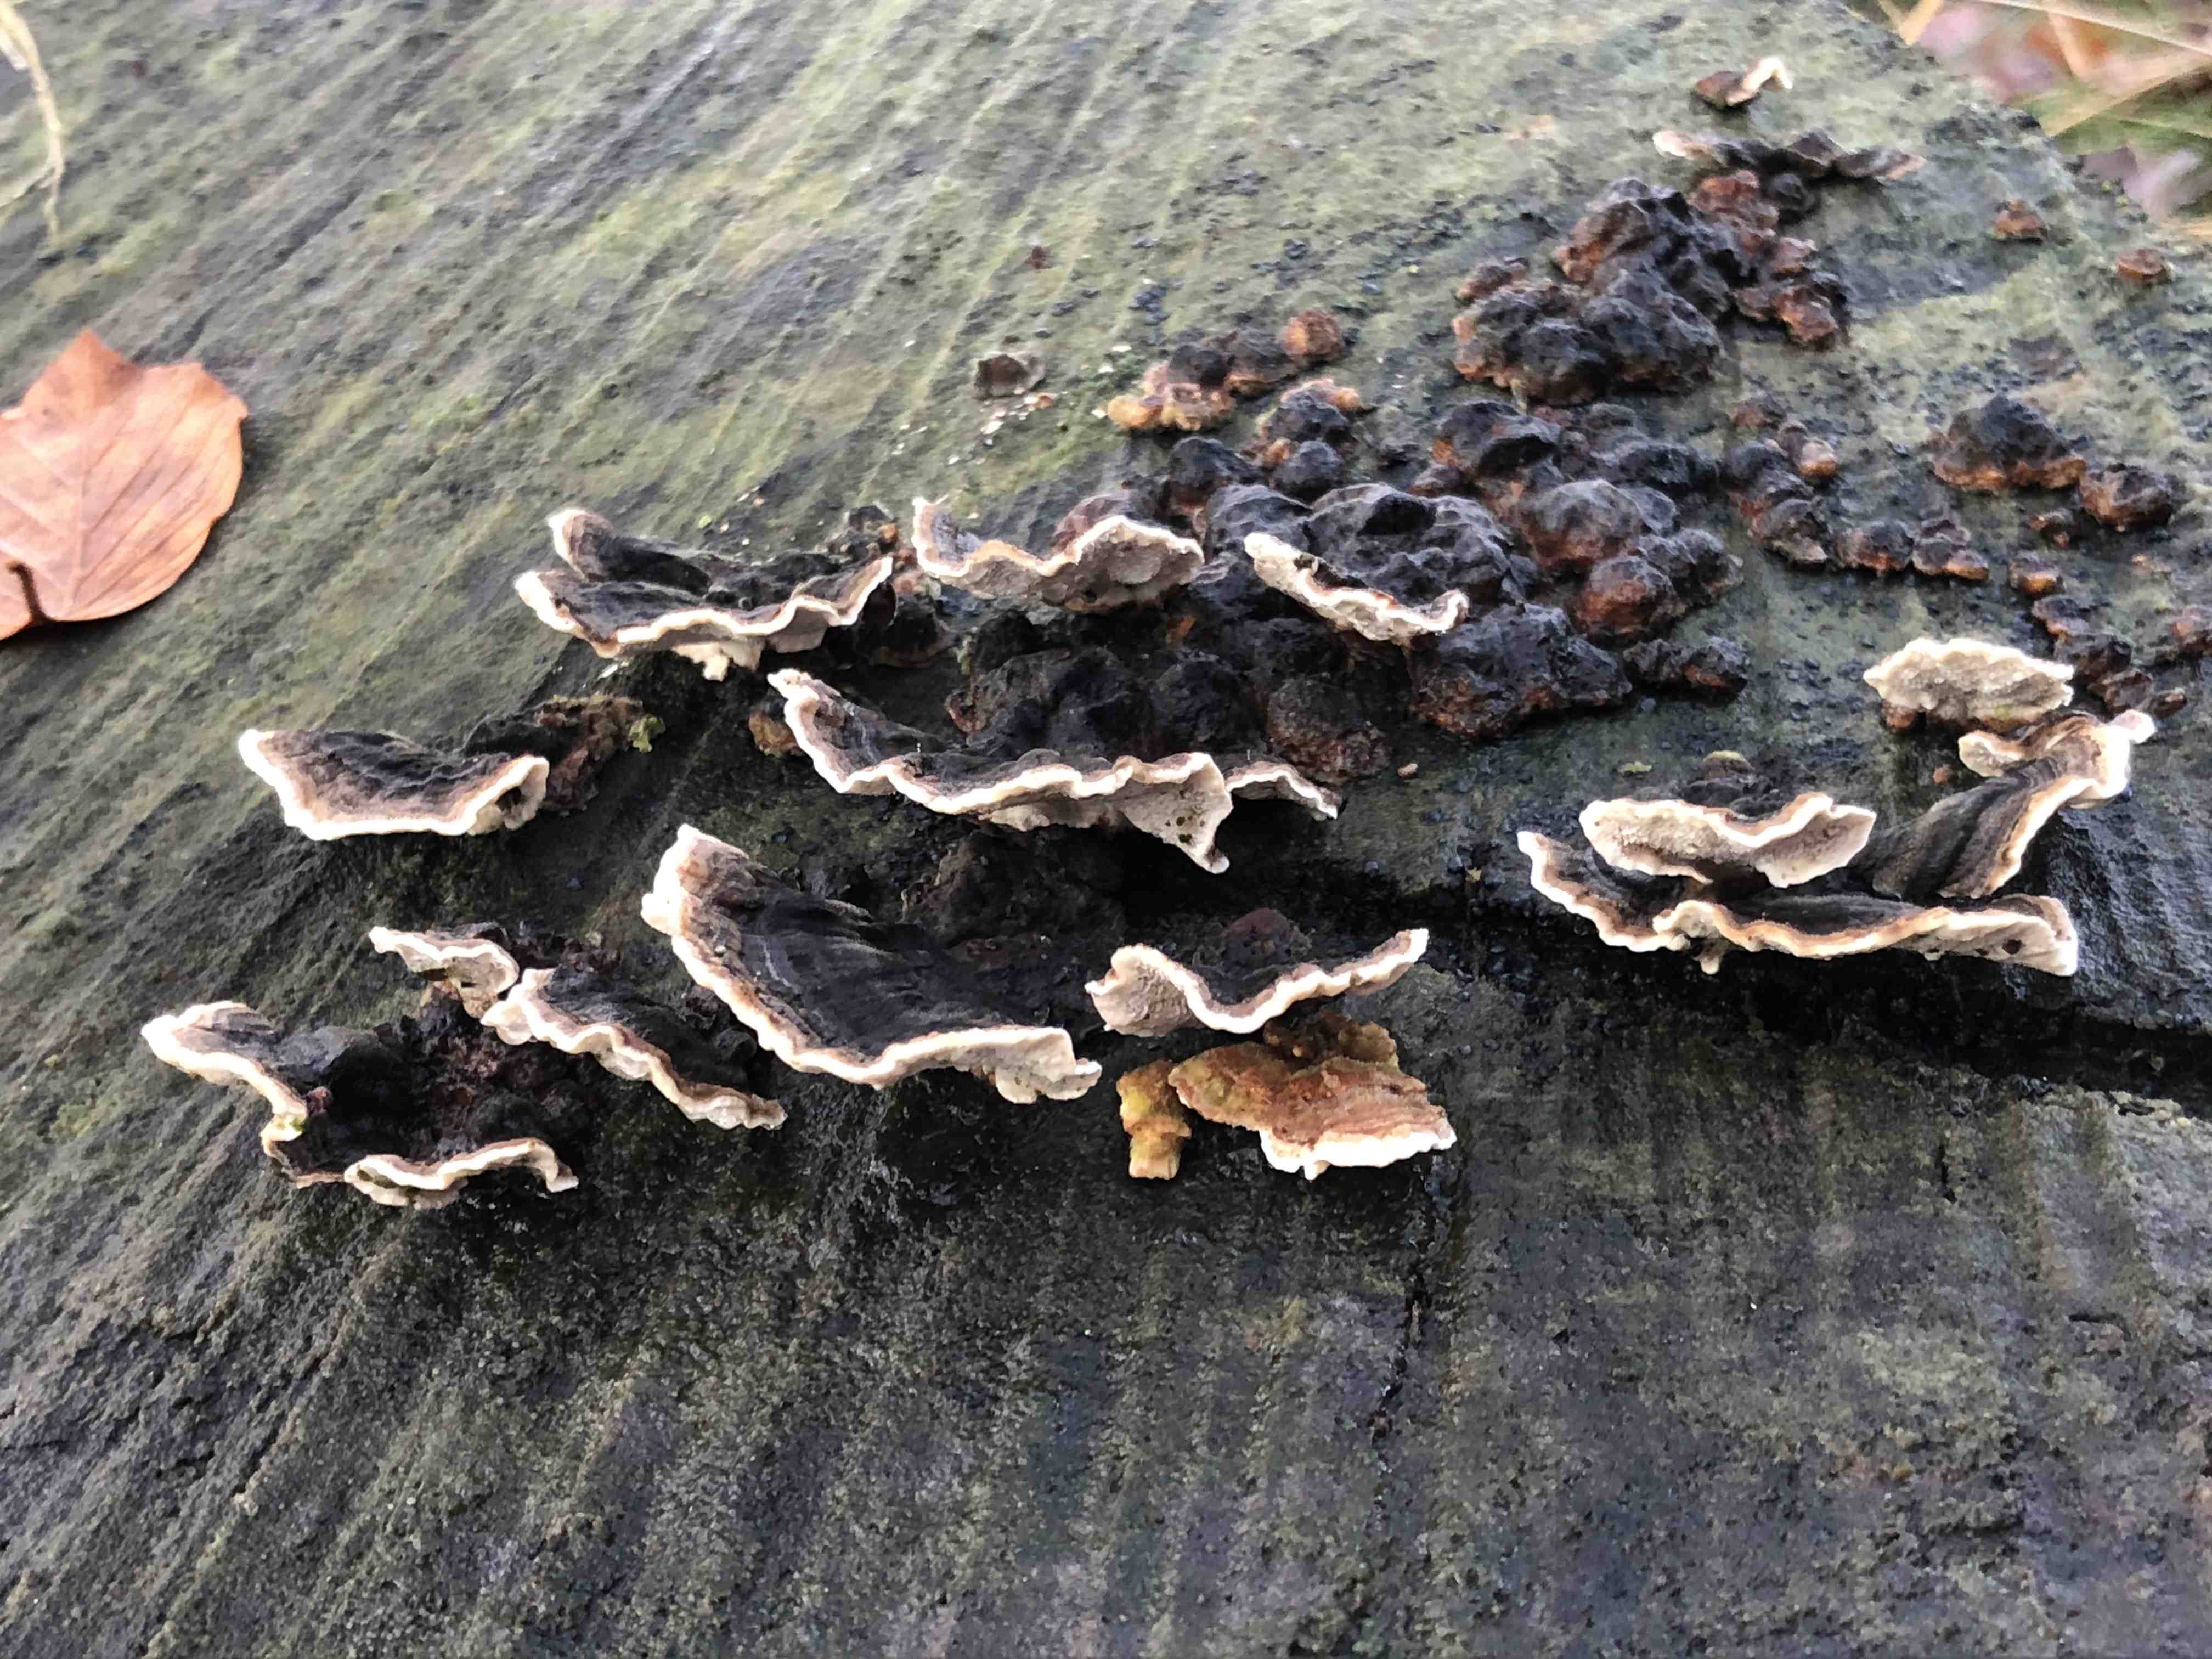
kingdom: Fungi
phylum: Basidiomycota
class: Agaricomycetes
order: Polyporales
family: Polyporaceae
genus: Trametes
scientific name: Trametes versicolor
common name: broget læderporesvamp
